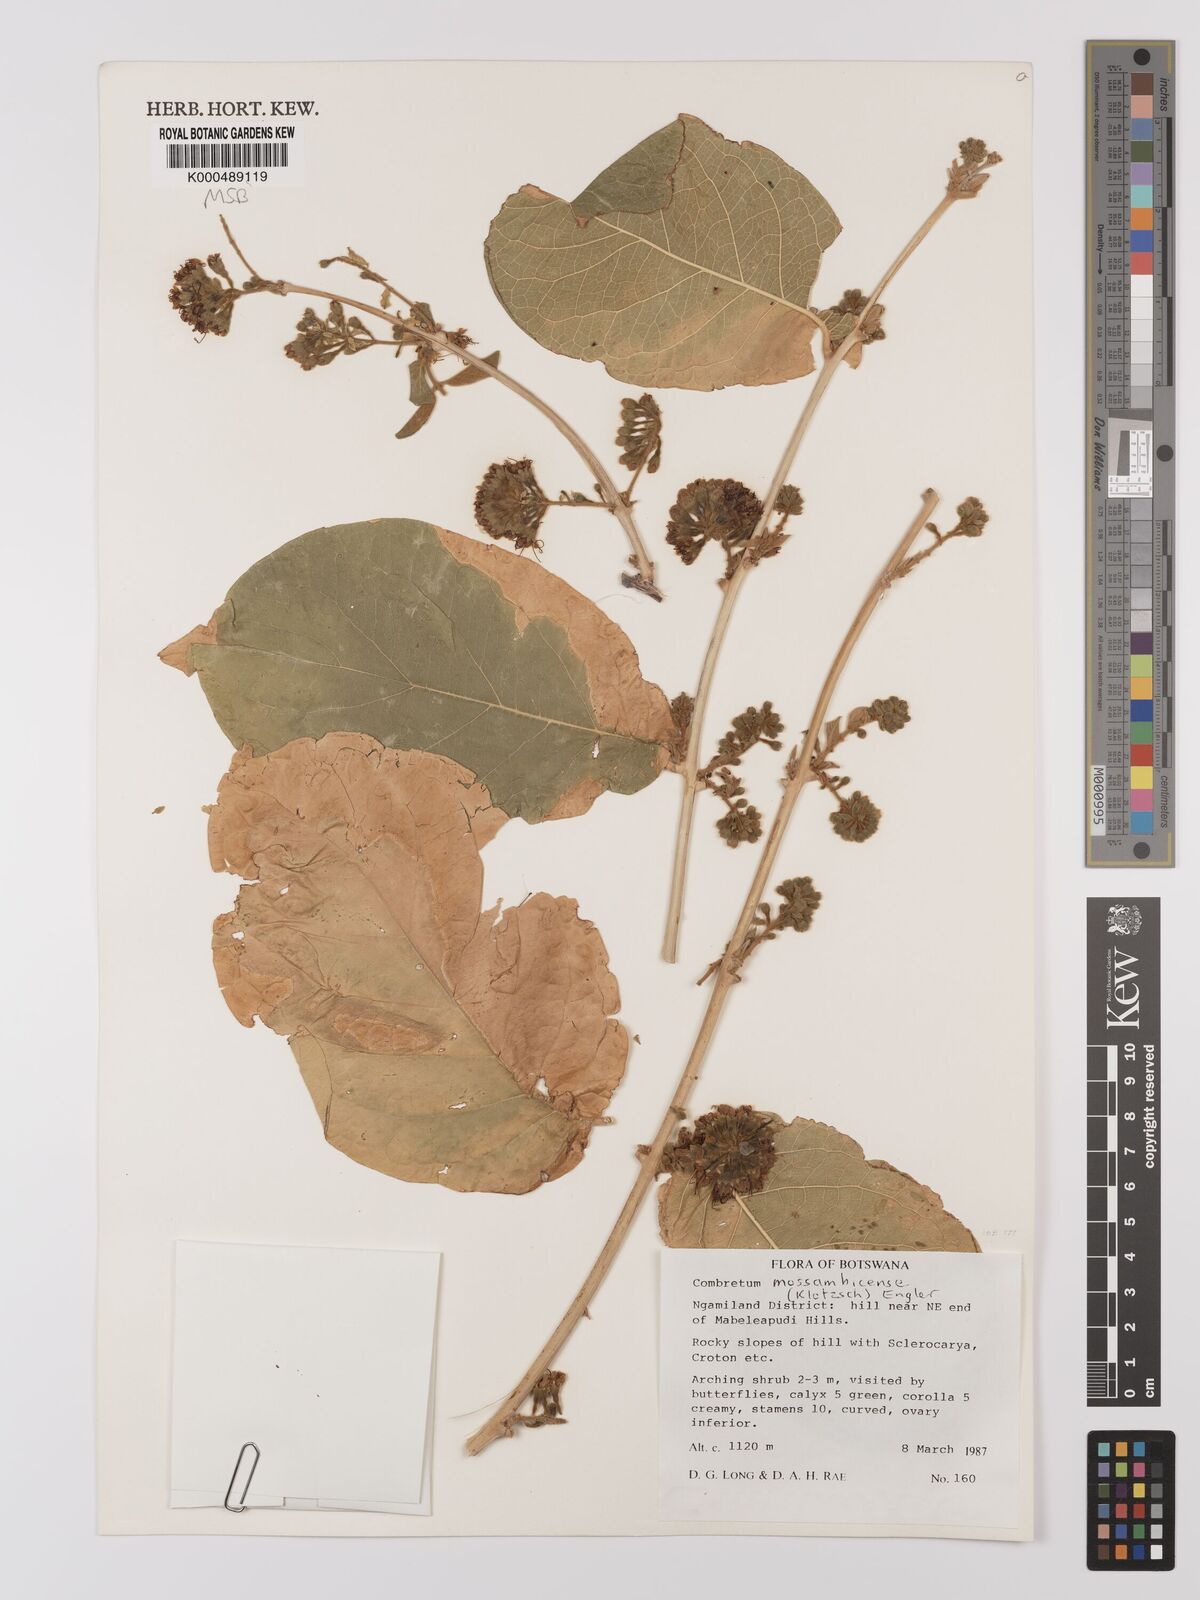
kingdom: Plantae
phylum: Tracheophyta
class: Magnoliopsida
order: Myrtales
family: Combretaceae
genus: Combretum
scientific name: Combretum mossambicense
